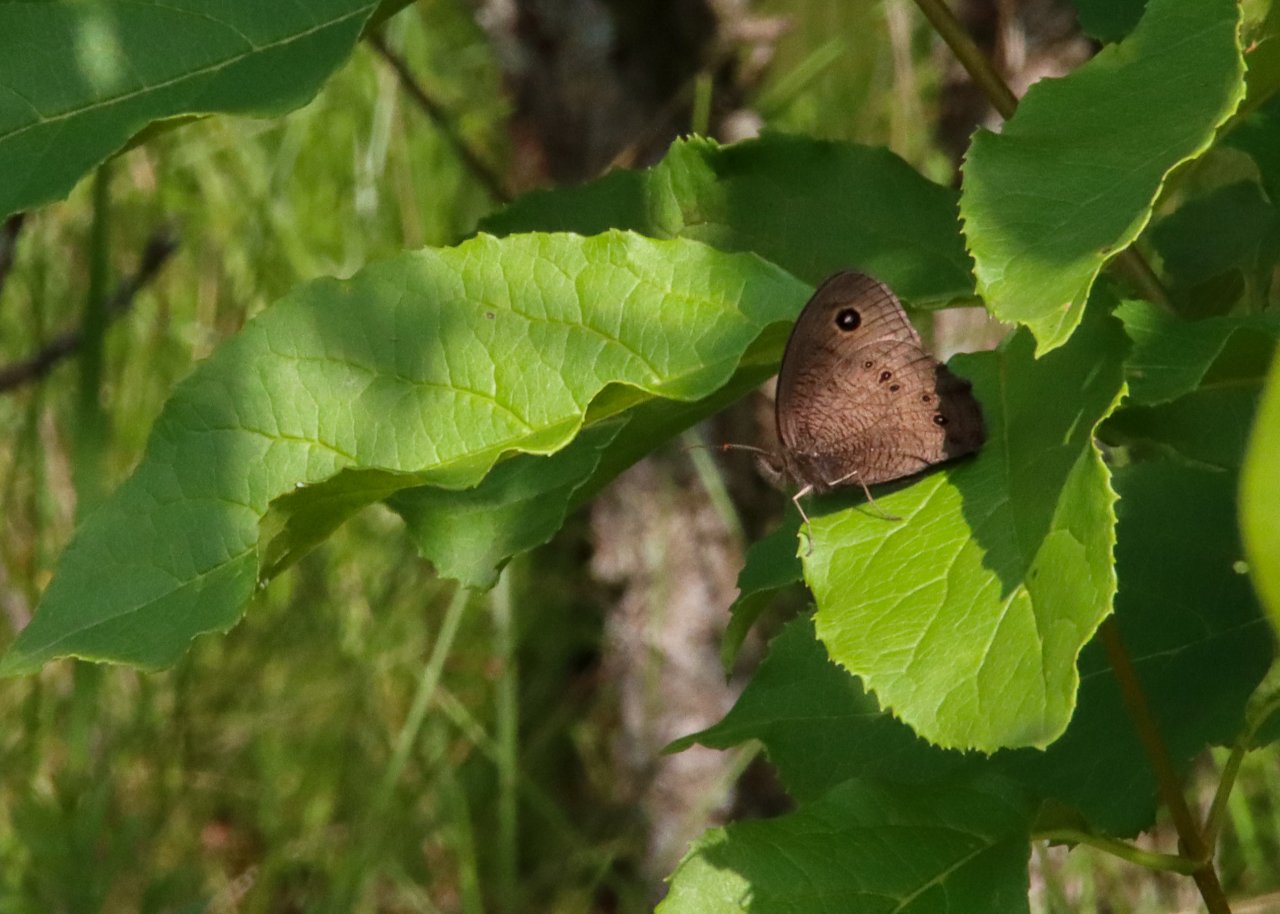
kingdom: Animalia
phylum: Arthropoda
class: Insecta
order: Lepidoptera
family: Nymphalidae
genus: Cercyonis
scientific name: Cercyonis pegala
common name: Common Wood-Nymph
